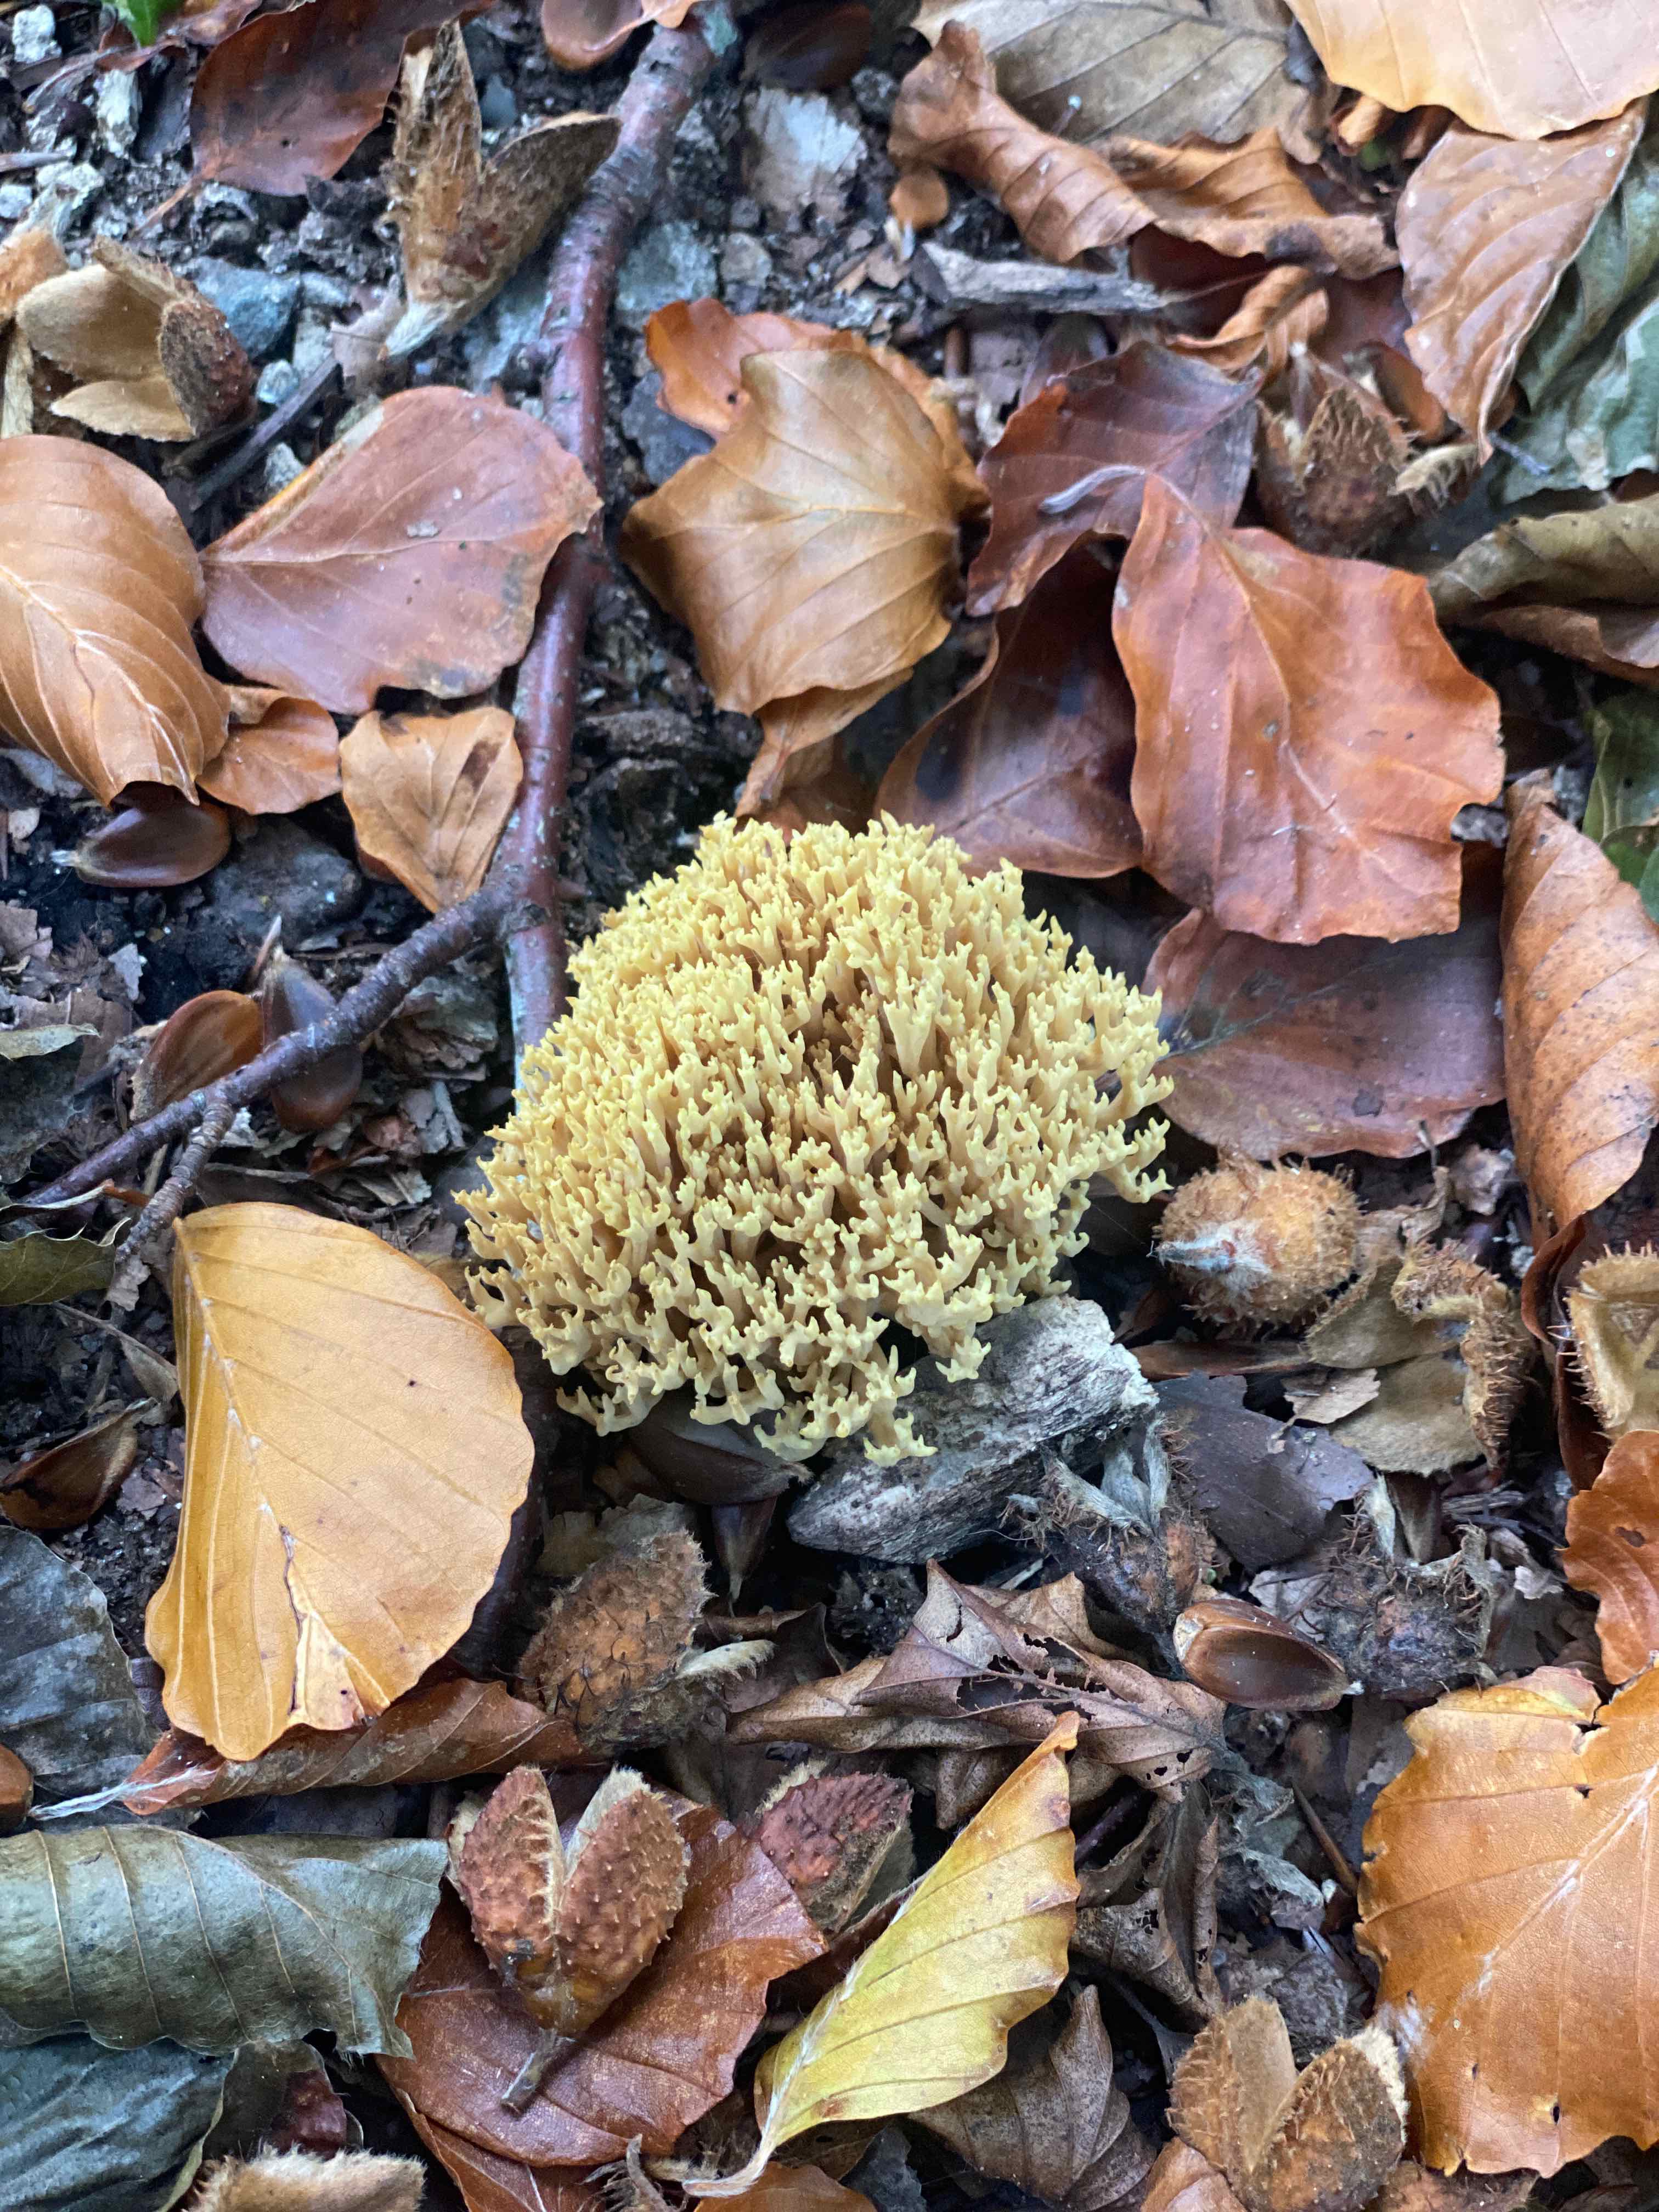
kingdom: Fungi
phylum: Basidiomycota
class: Agaricomycetes
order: Gomphales
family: Gomphaceae
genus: Ramaria
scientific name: Ramaria stricta
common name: rank koralsvamp
